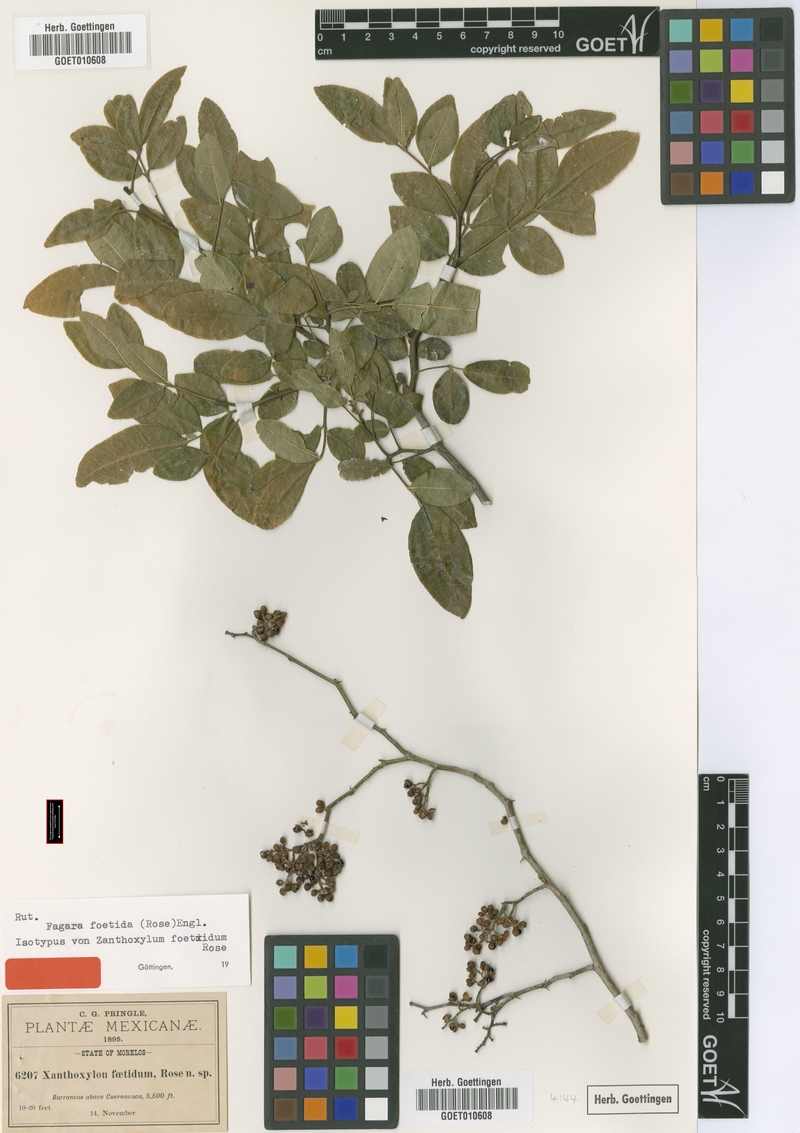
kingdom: Plantae
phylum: Tracheophyta
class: Magnoliopsida
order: Sapindales
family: Rutaceae
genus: Zanthoxylum
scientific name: Zanthoxylum limoncello
